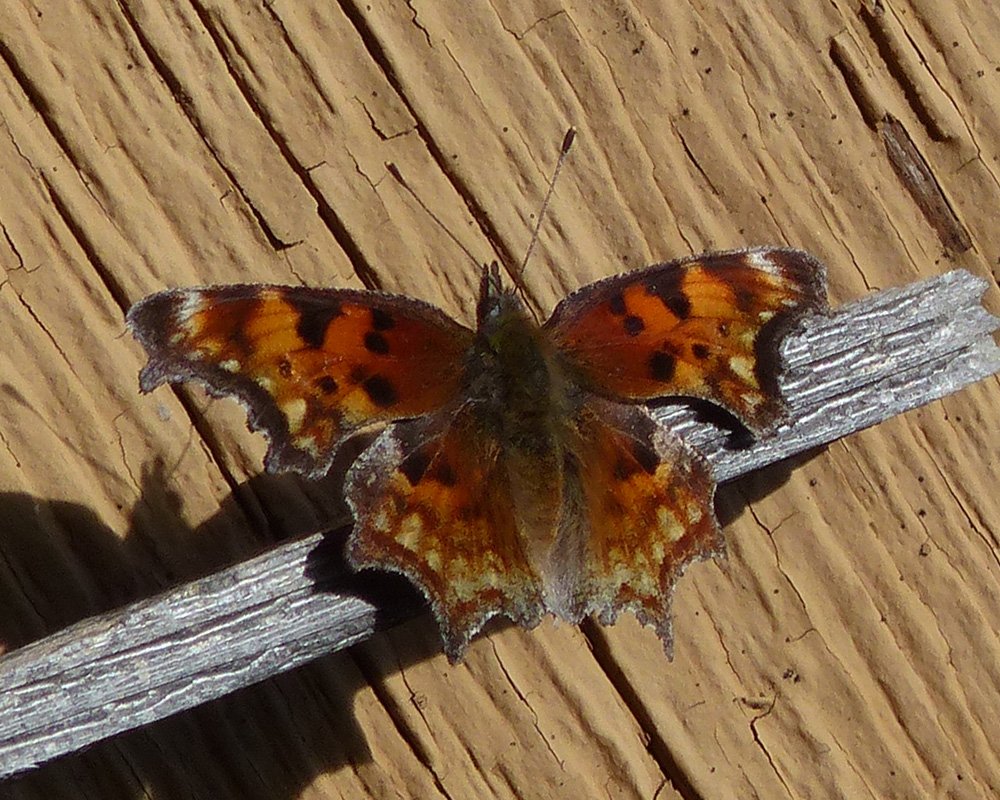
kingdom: Animalia
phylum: Arthropoda
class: Insecta
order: Lepidoptera
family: Nymphalidae
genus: Polygonia
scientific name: Polygonia gracilis
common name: Hoary Comma
